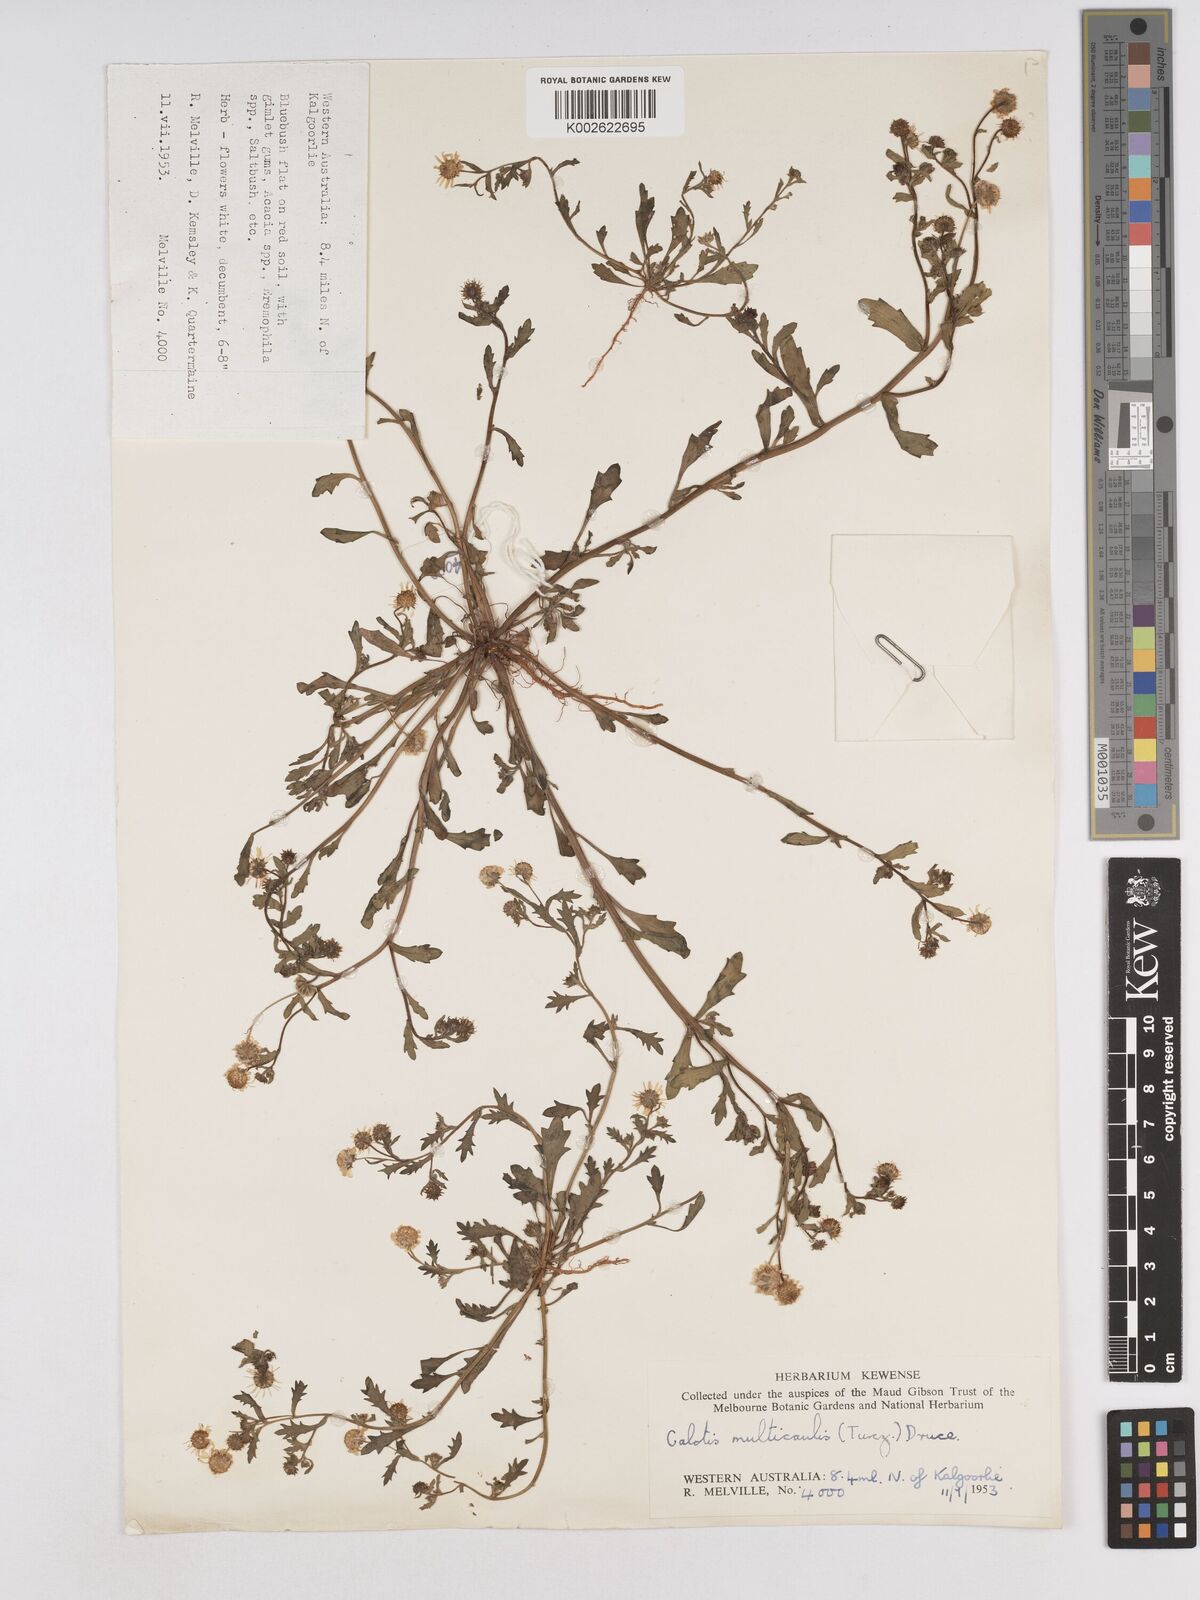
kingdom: Plantae
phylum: Tracheophyta
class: Magnoliopsida
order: Asterales
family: Asteraceae
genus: Calotis
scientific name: Calotis multicaulis
